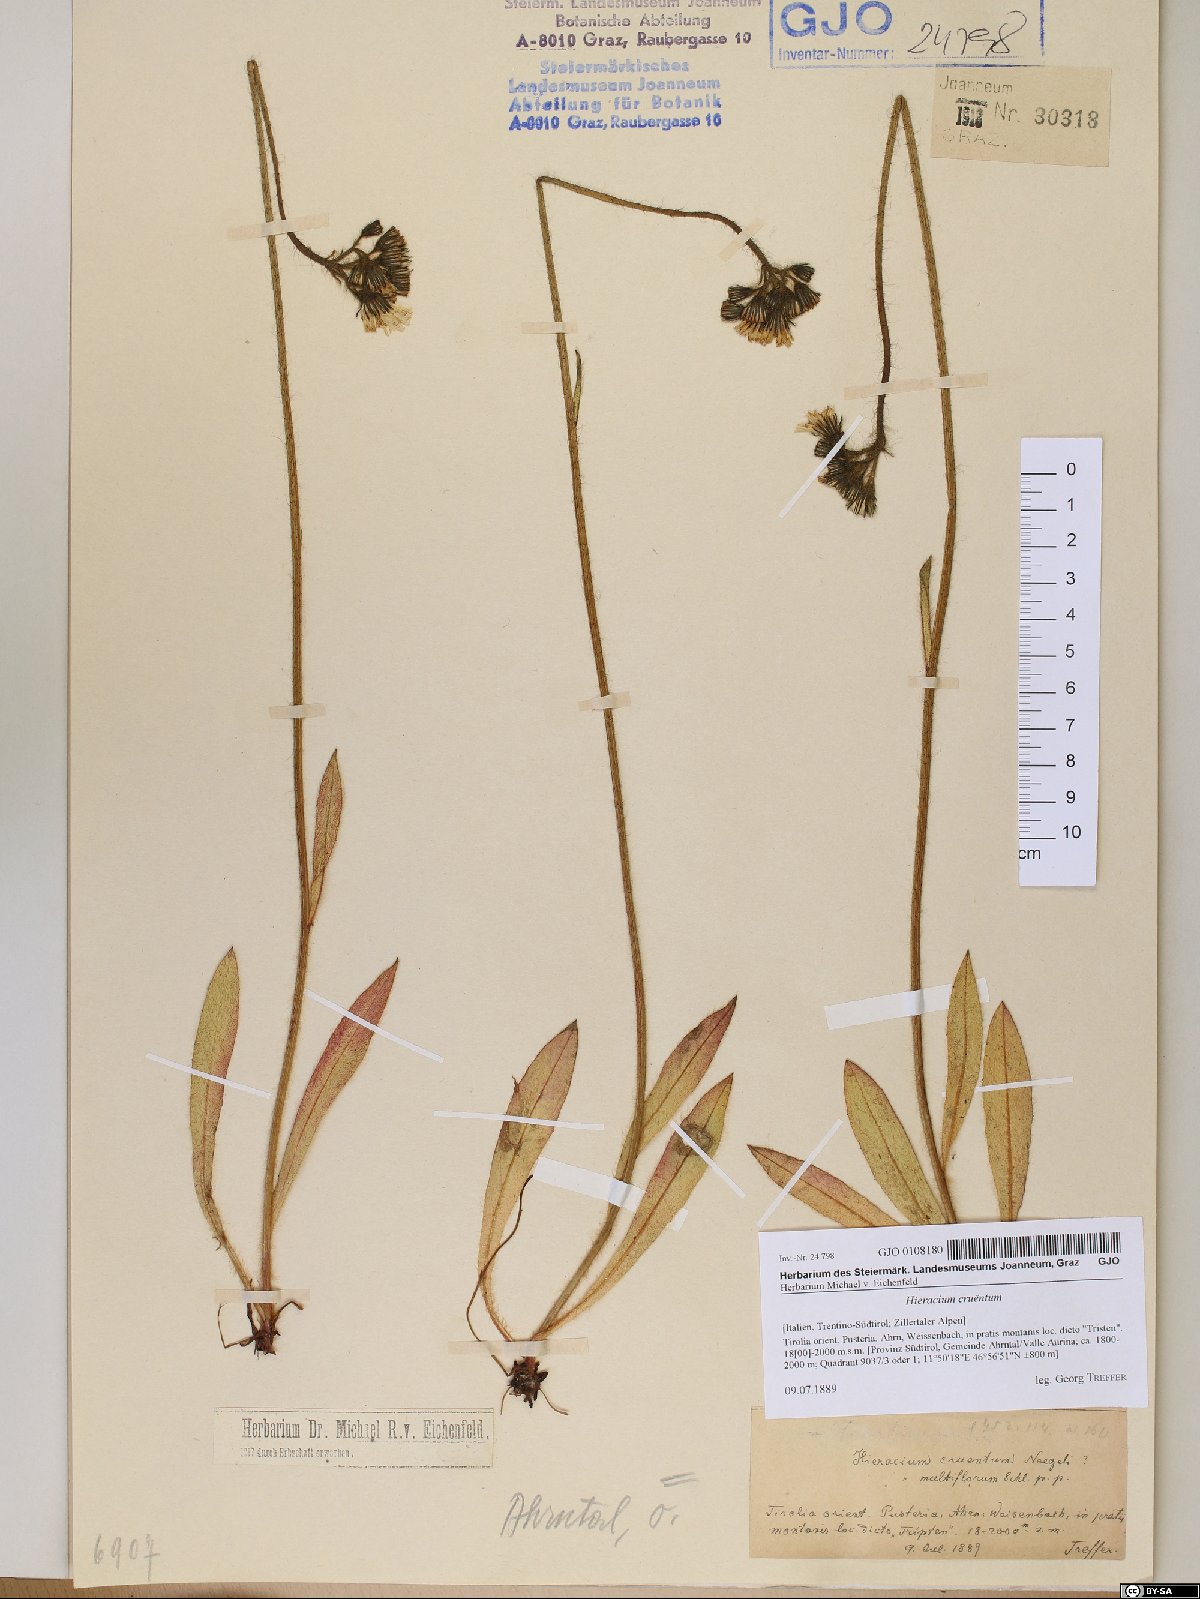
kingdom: Plantae
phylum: Tracheophyta
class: Magnoliopsida
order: Asterales
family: Asteraceae
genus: Pilosella
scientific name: Pilosella guthnikiana
